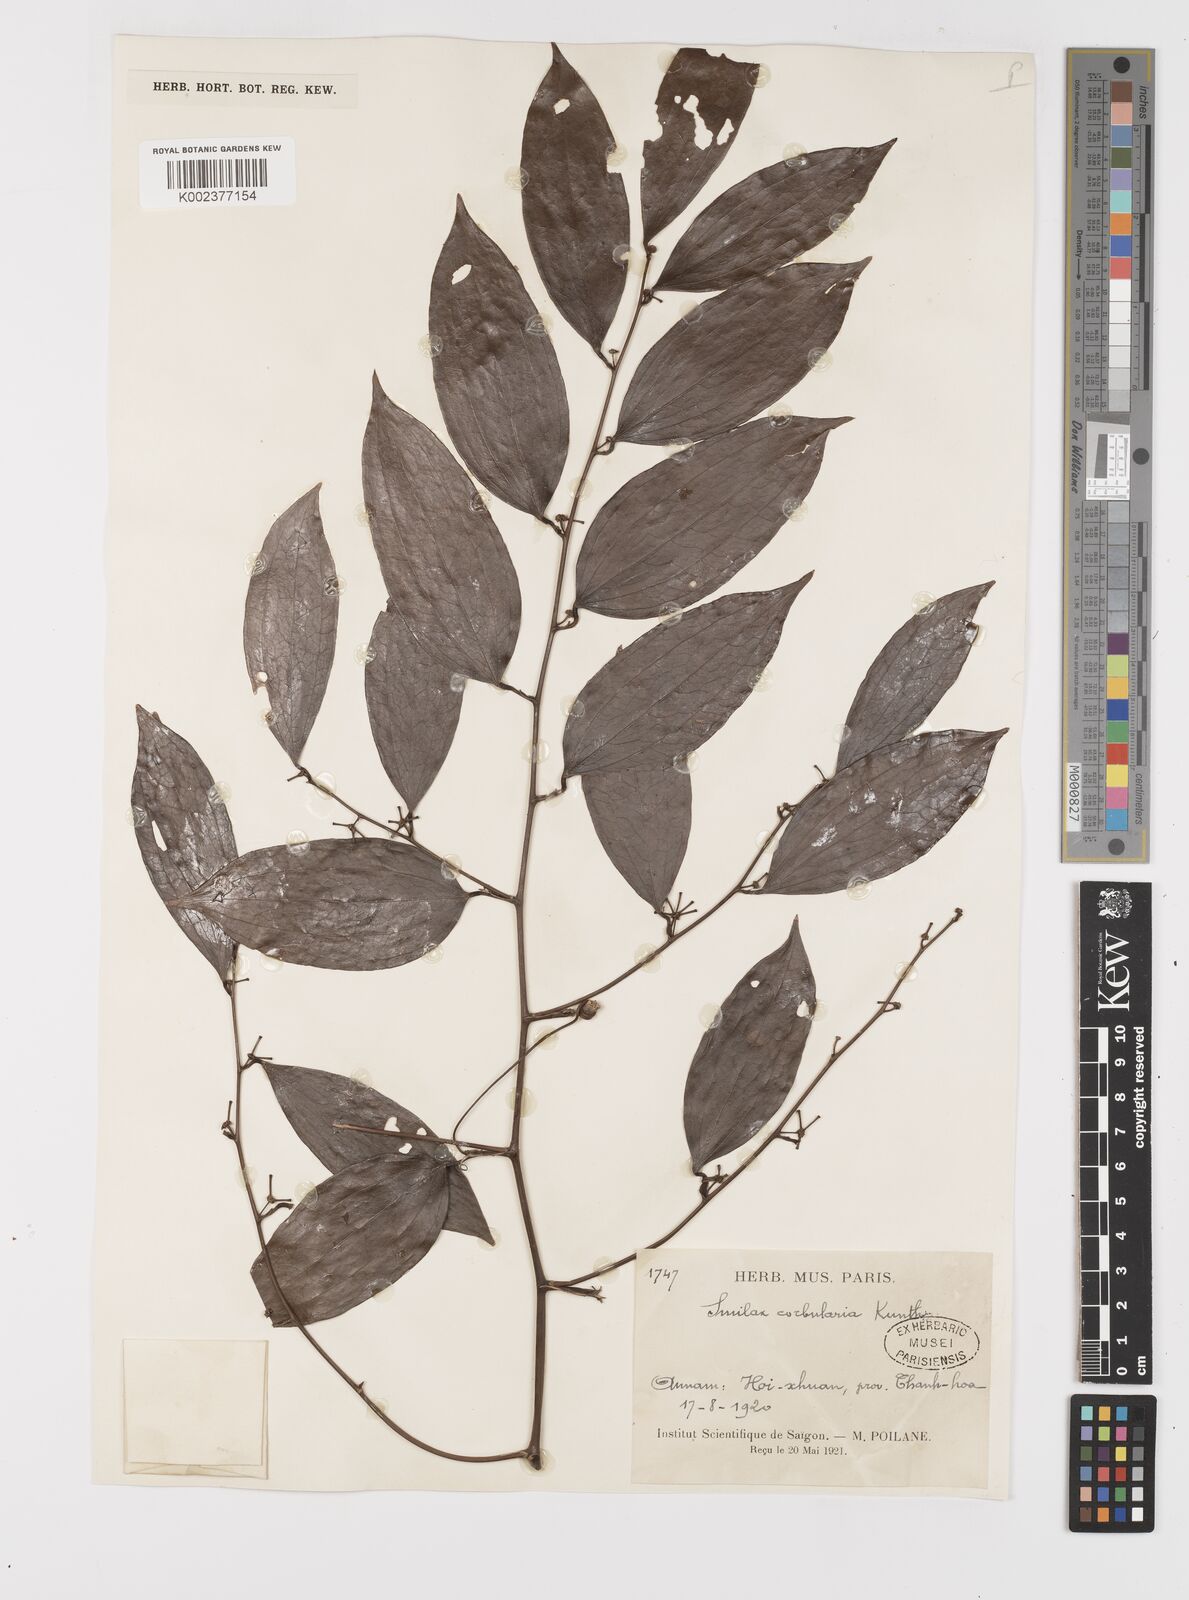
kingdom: Plantae
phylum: Tracheophyta
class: Liliopsida
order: Liliales
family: Smilacaceae
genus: Smilax
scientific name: Smilax corbularia
